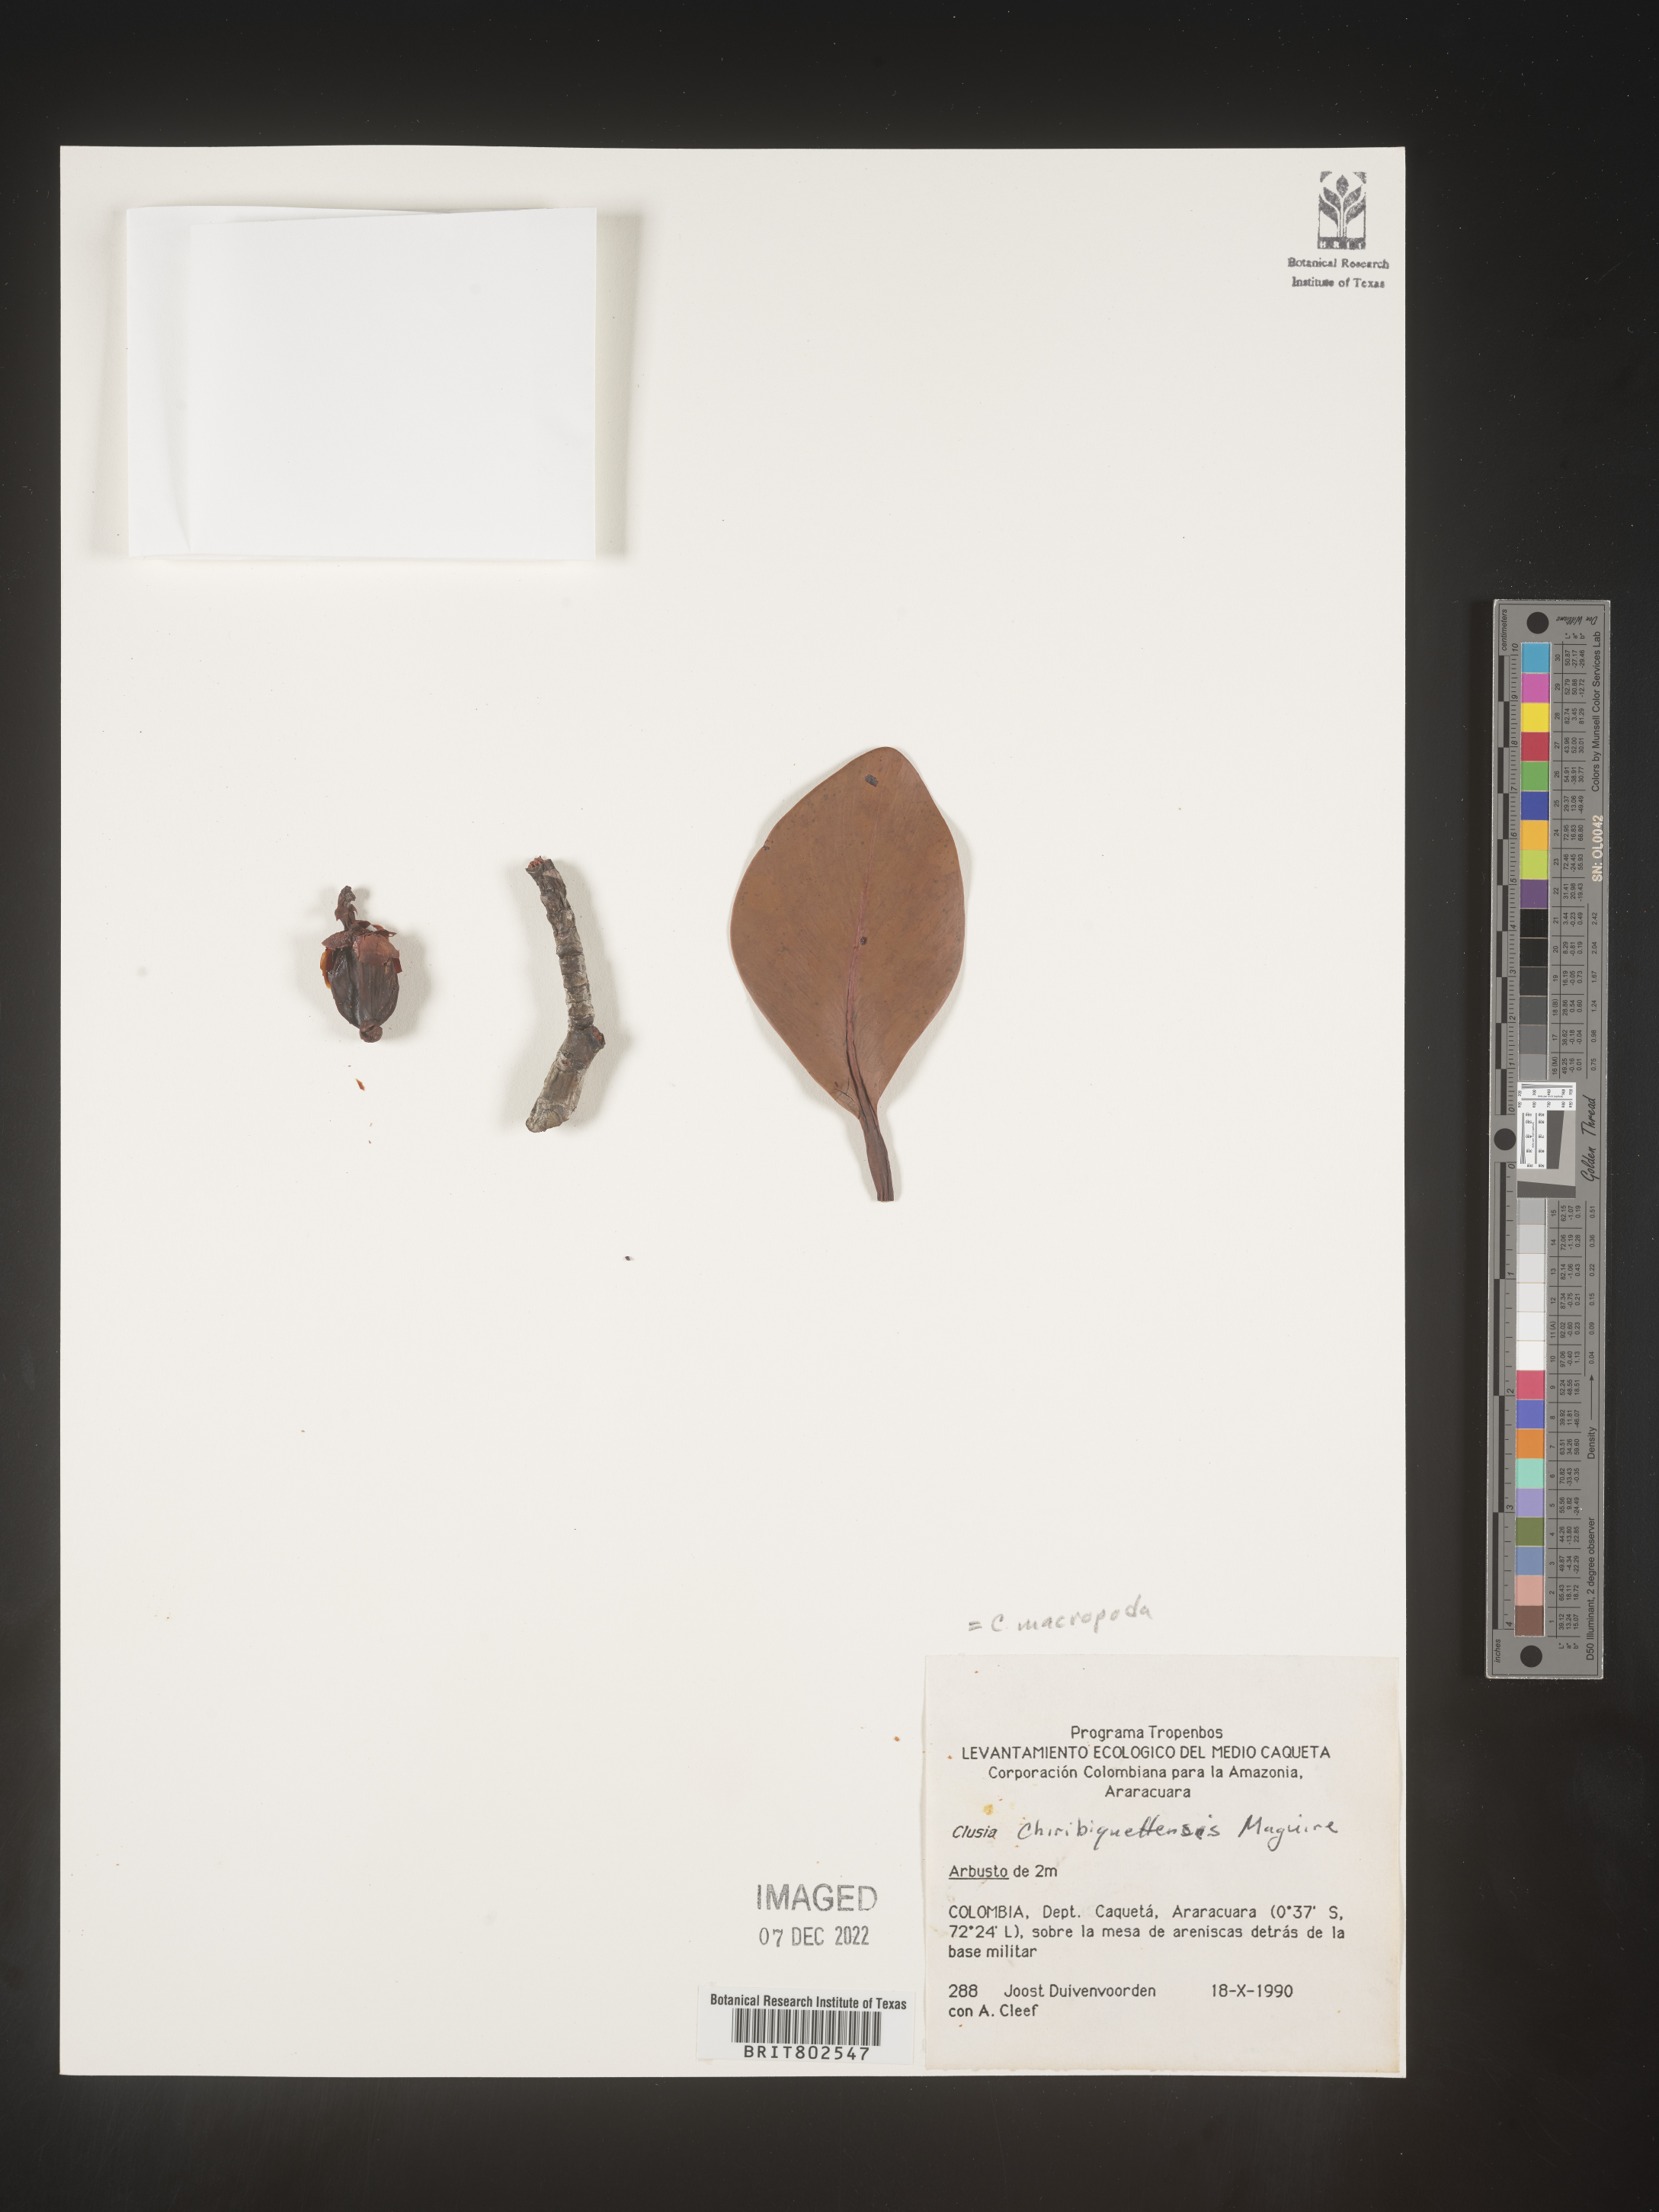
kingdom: Plantae
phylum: Tracheophyta
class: Magnoliopsida
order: Malpighiales
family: Clusiaceae
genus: Clusia
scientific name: Clusia
